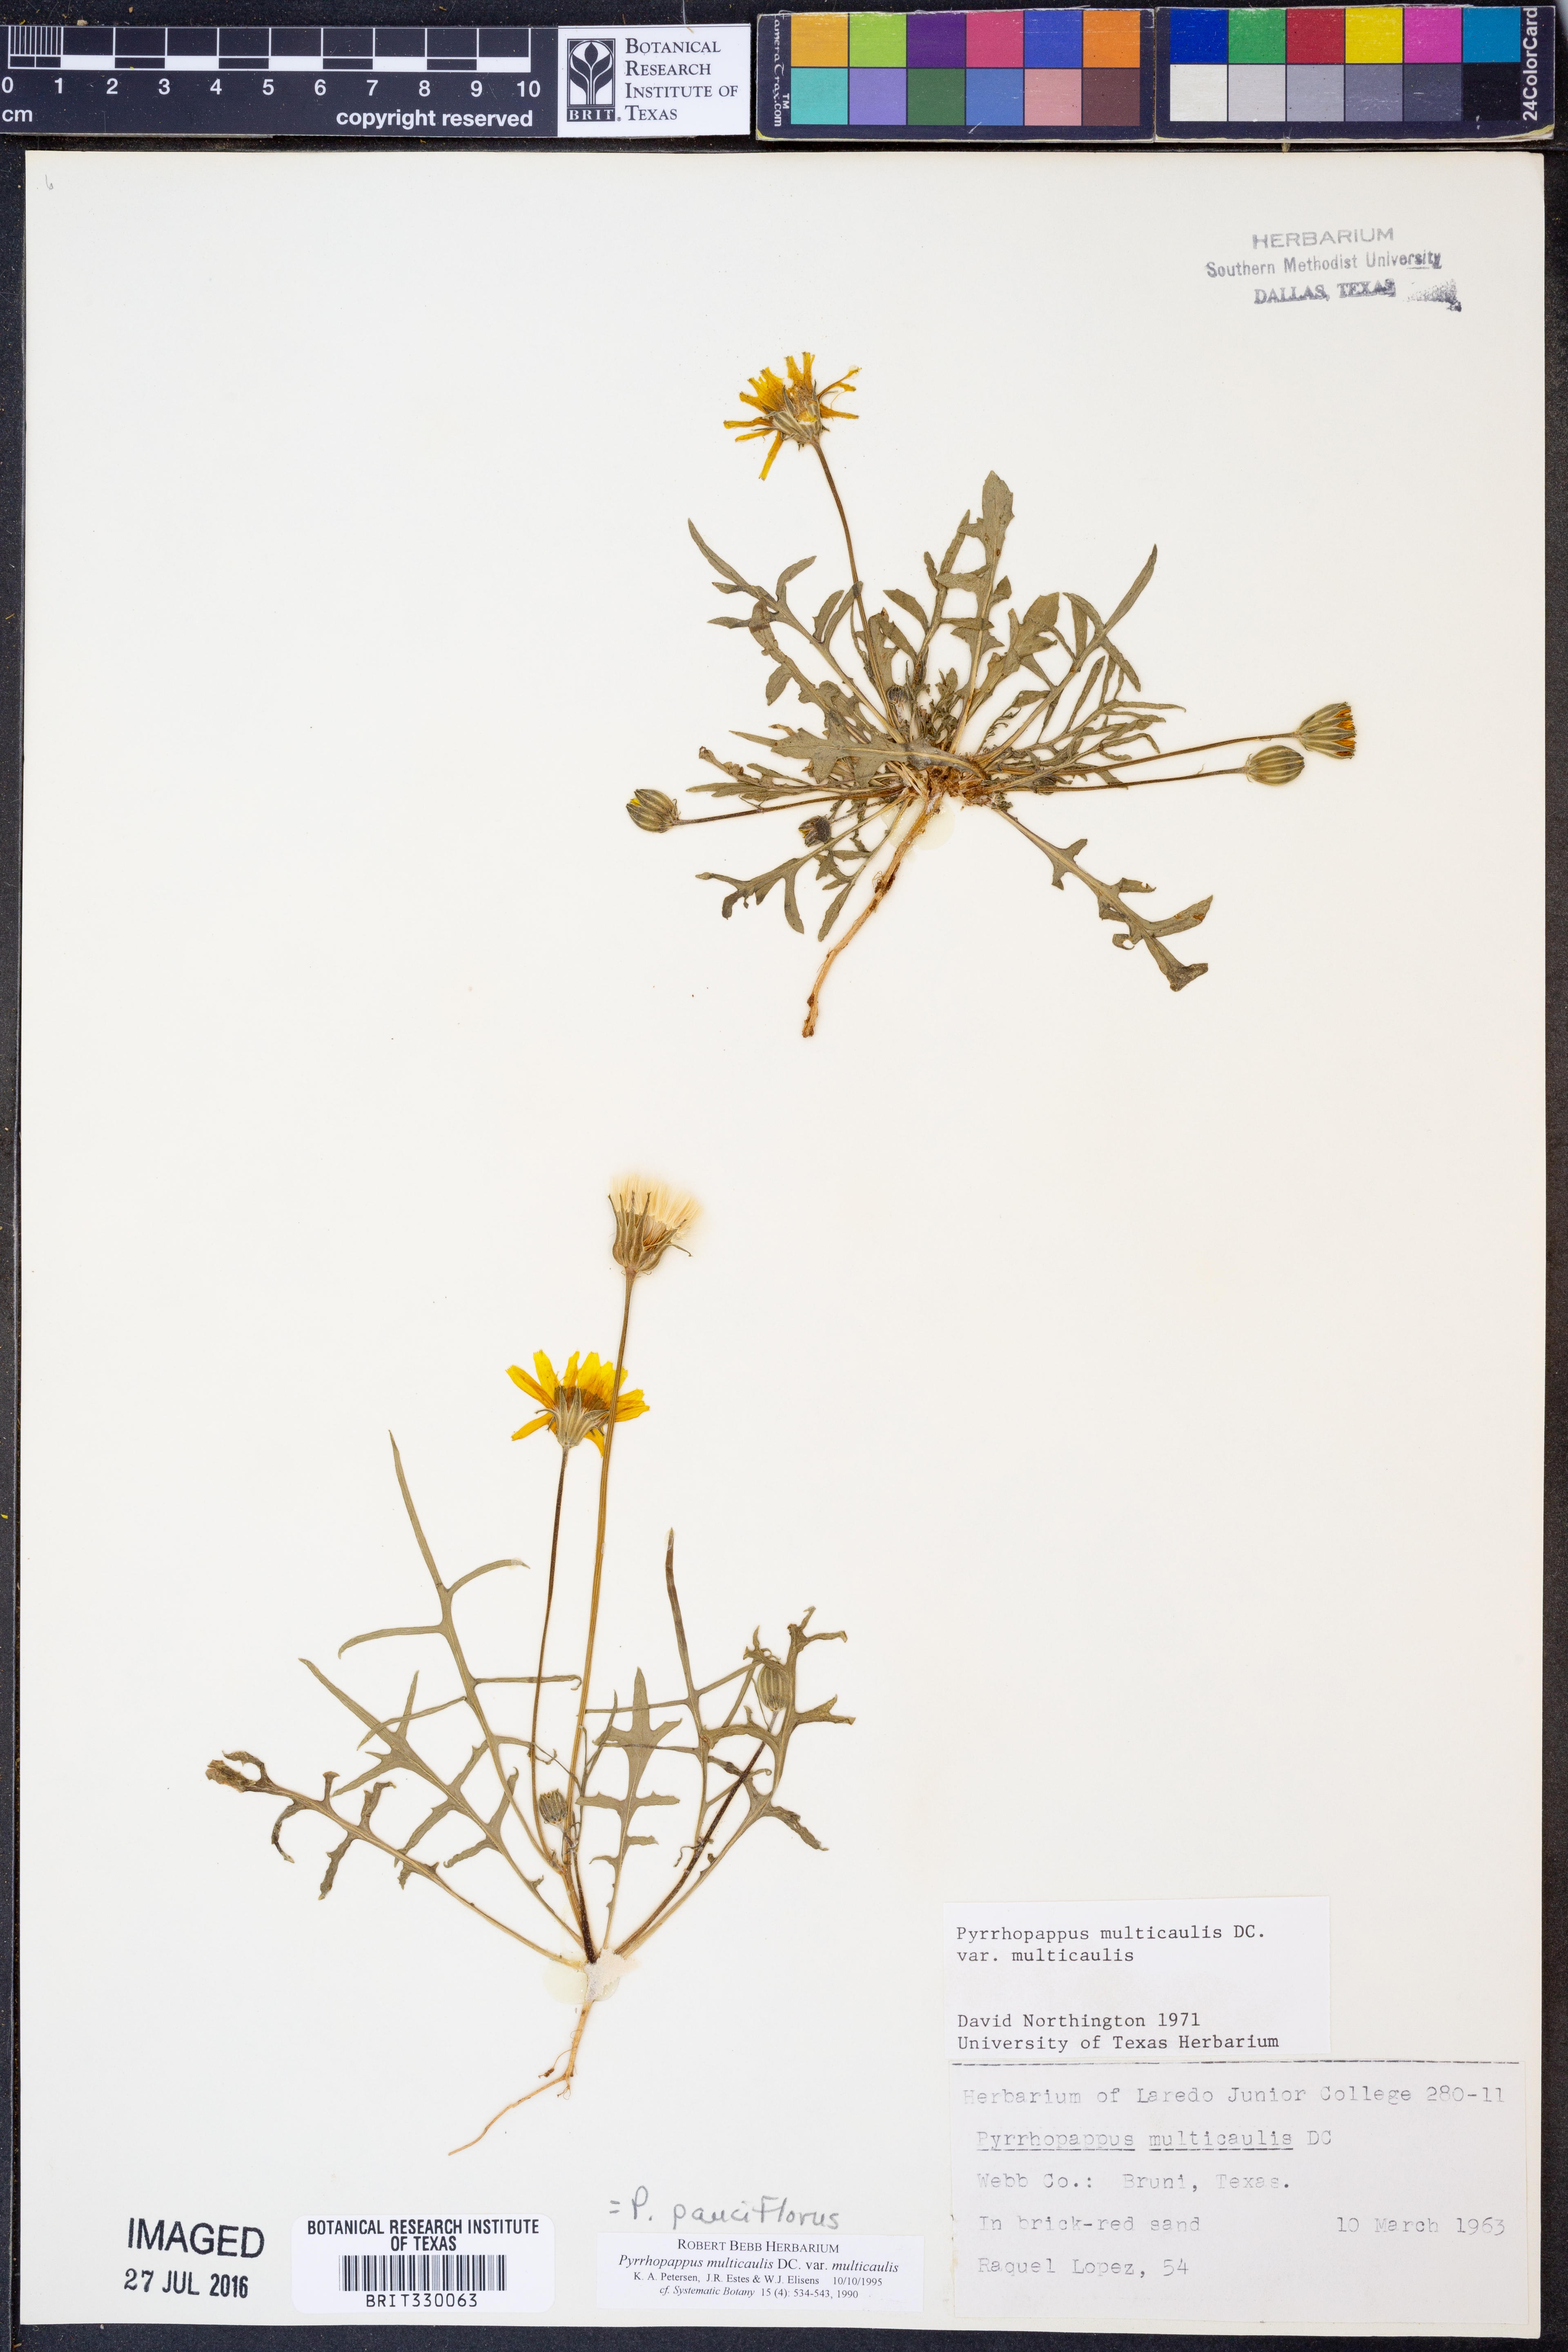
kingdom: Plantae
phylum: Tracheophyta
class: Magnoliopsida
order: Asterales
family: Asteraceae
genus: Pyrrhopappus
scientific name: Pyrrhopappus pauciflorus
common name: Texas false dandelion
